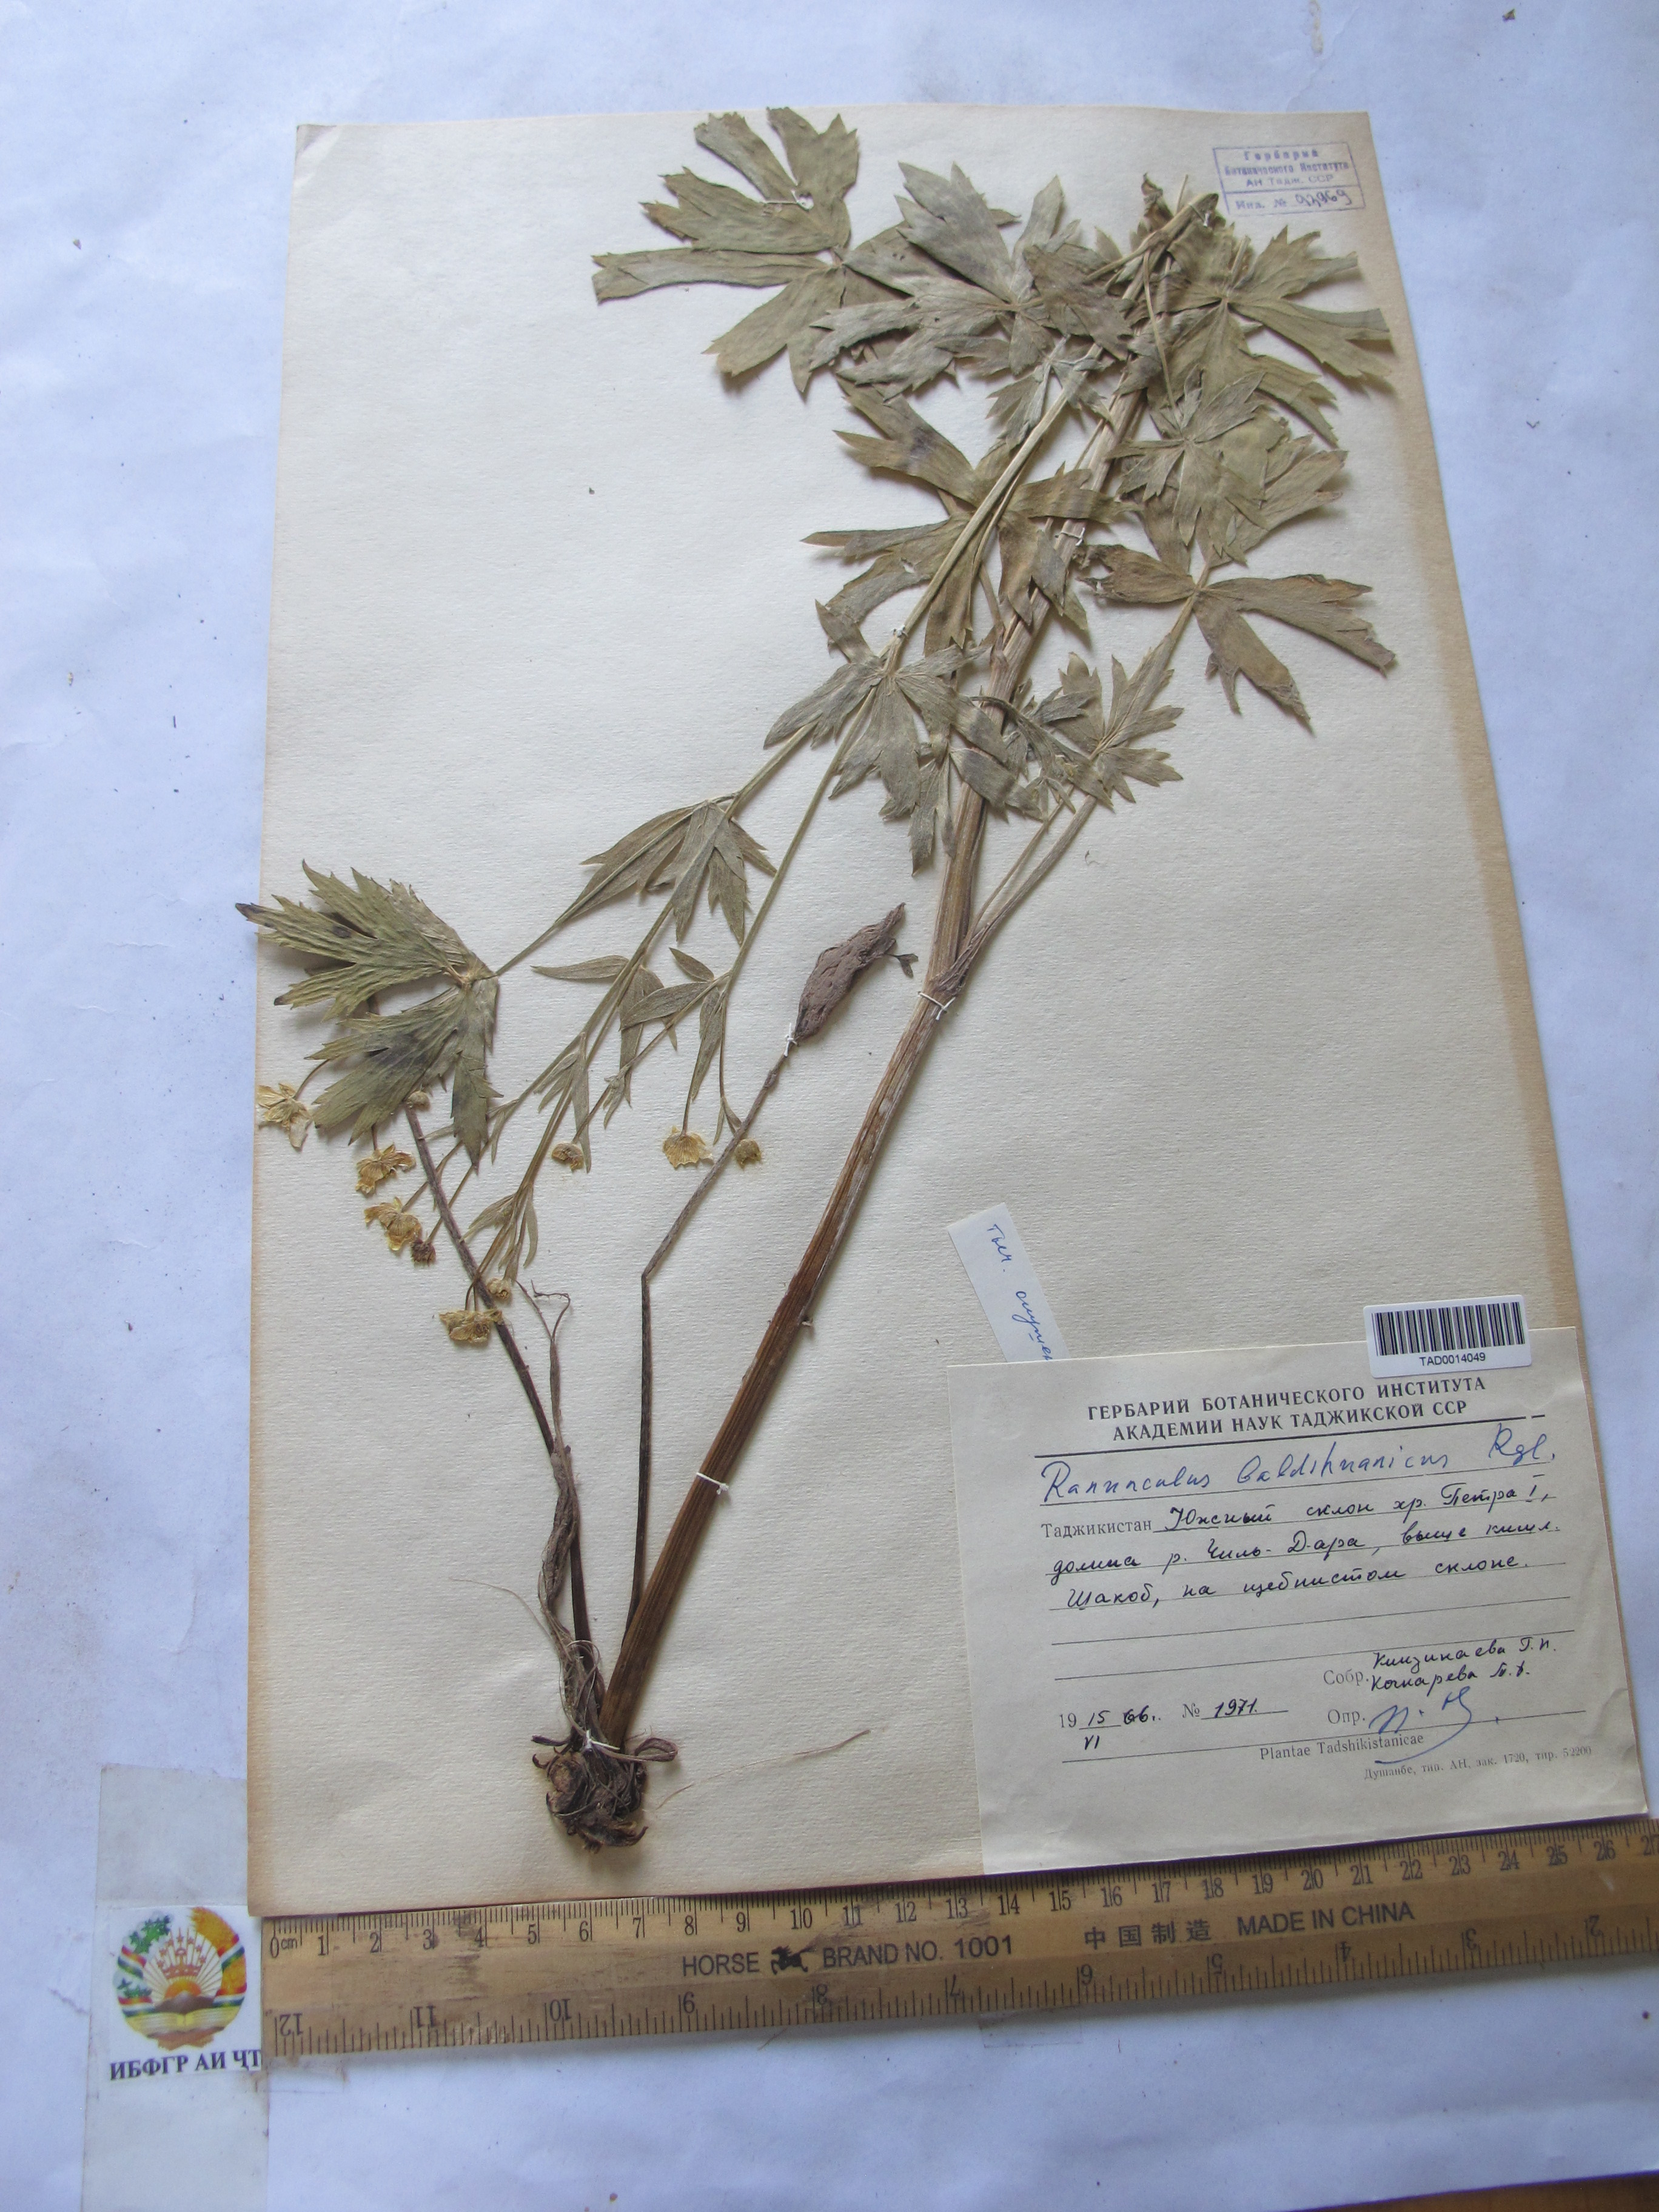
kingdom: Plantae
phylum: Tracheophyta
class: Magnoliopsida
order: Ranunculales
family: Ranunculaceae
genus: Ranunculus
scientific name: Ranunculus baldshuanicus
